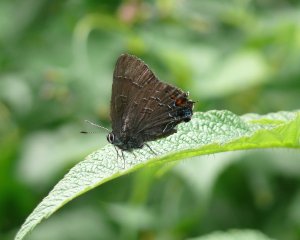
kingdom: Animalia
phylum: Arthropoda
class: Insecta
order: Lepidoptera
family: Lycaenidae
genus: Satyrium
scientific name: Satyrium calanus
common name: Banded Hairstreak
